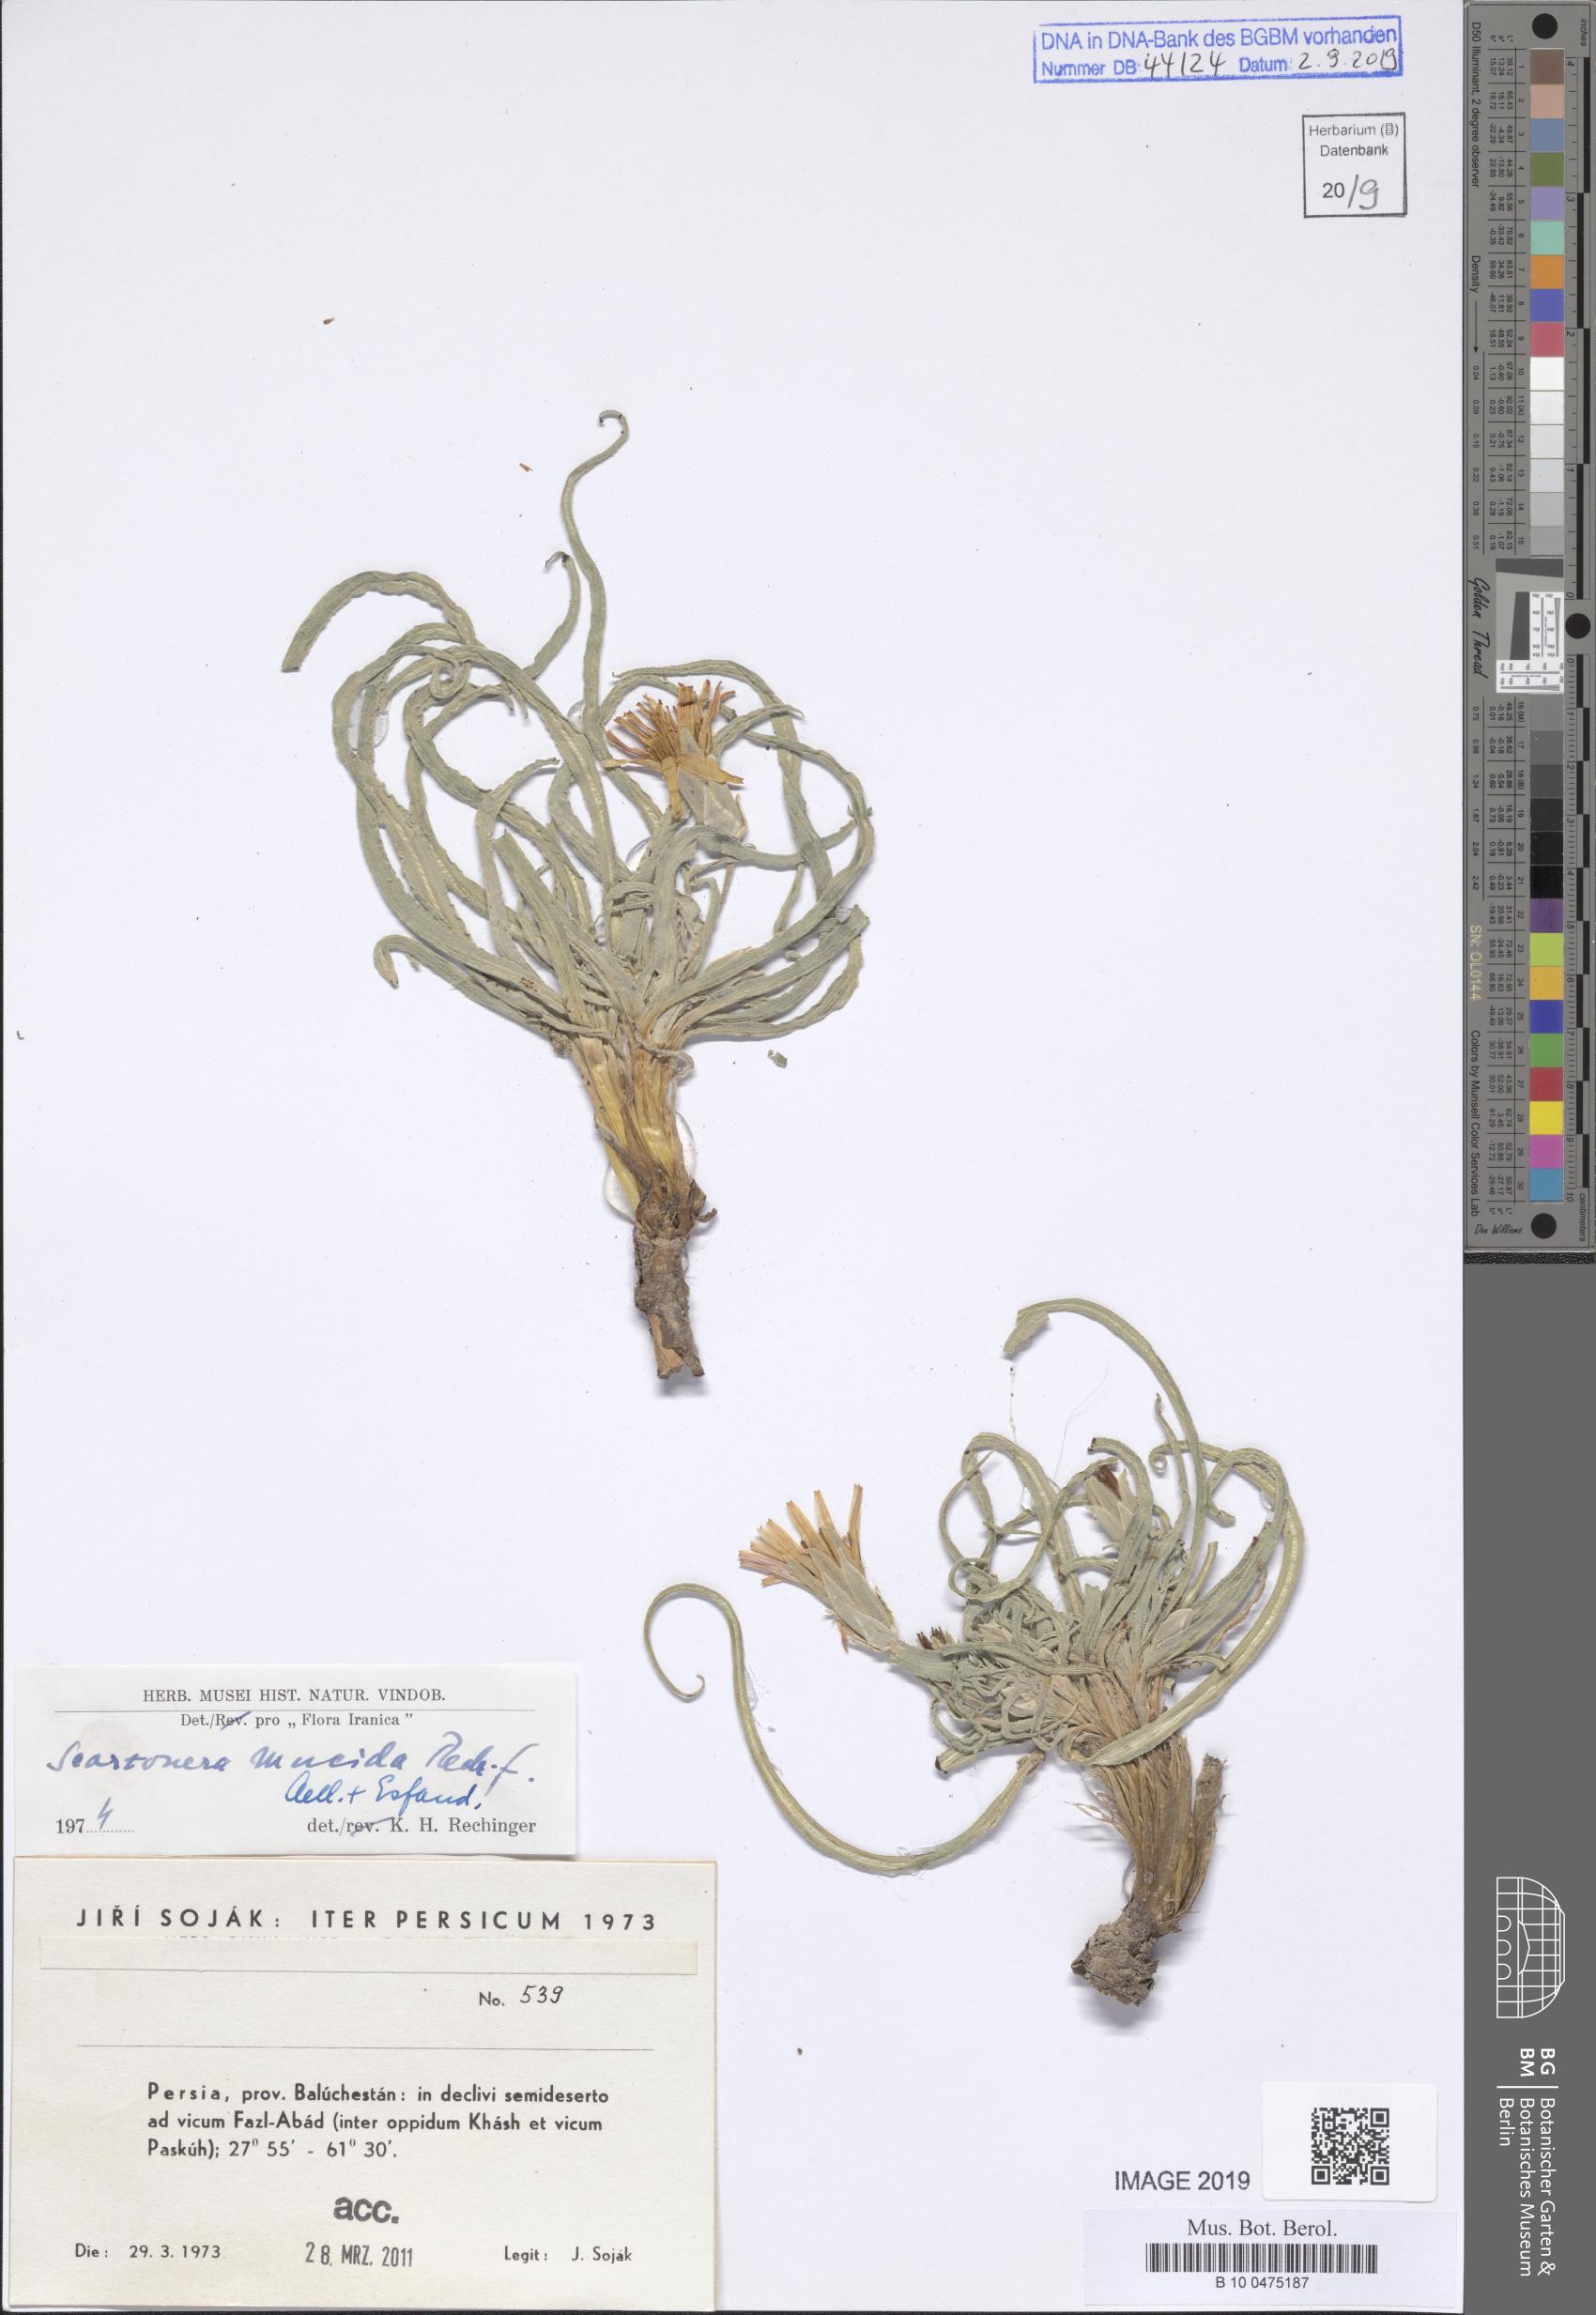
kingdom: Plantae
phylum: Tracheophyta
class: Magnoliopsida
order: Asterales
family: Asteraceae
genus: Candollea
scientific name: Candollea mucida
